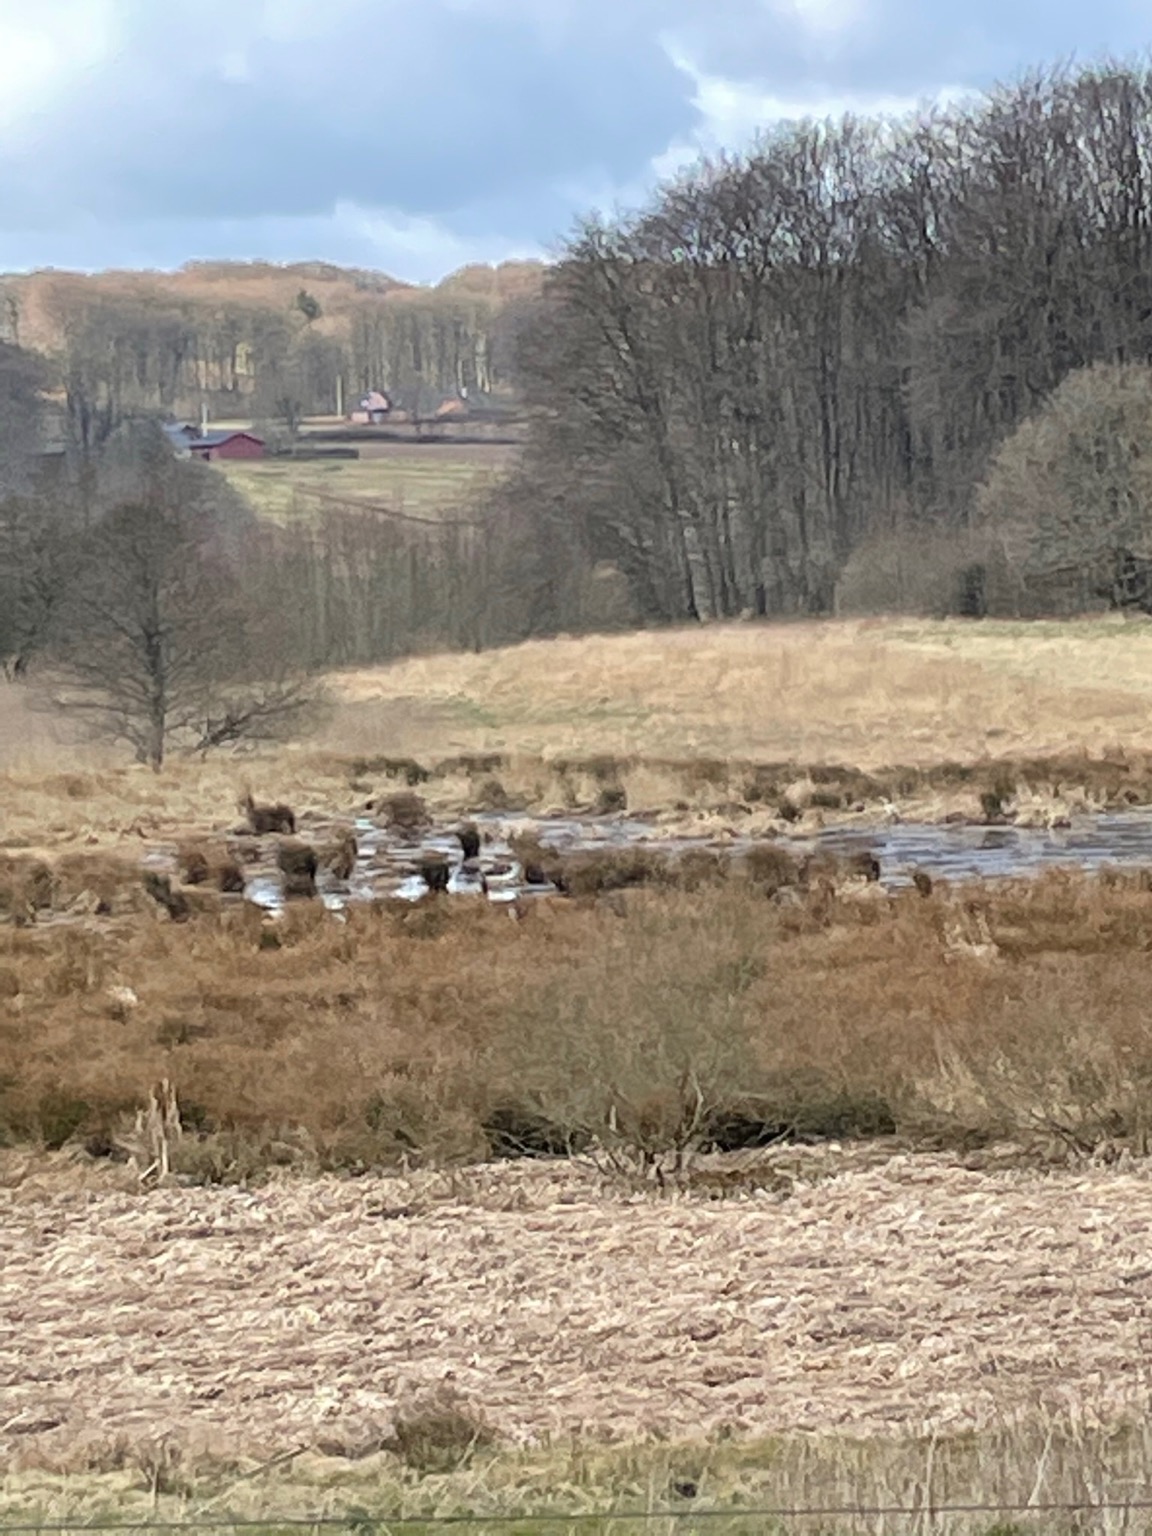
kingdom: Animalia
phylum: Chordata
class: Aves
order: Gruiformes
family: Gruidae
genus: Grus
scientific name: Grus grus
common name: Trane
